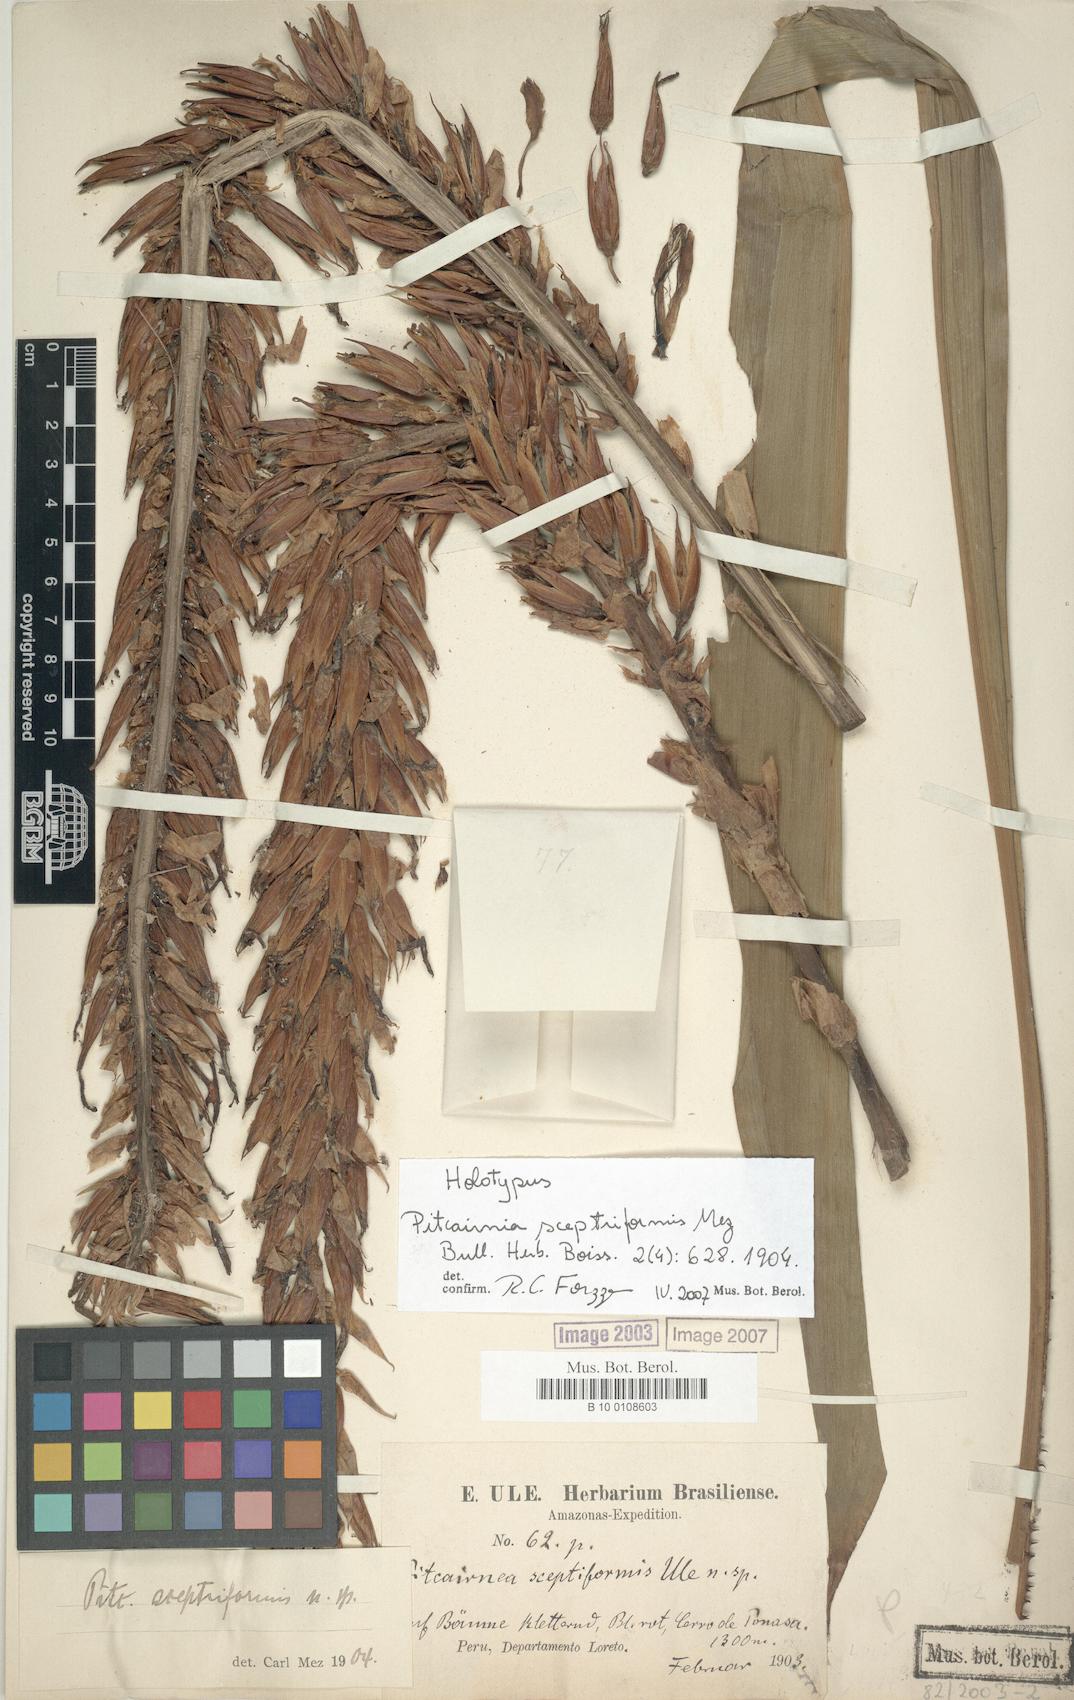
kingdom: Plantae
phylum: Tracheophyta
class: Liliopsida
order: Poales
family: Bromeliaceae
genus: Pitcairnia
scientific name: Pitcairnia sceptriformis
